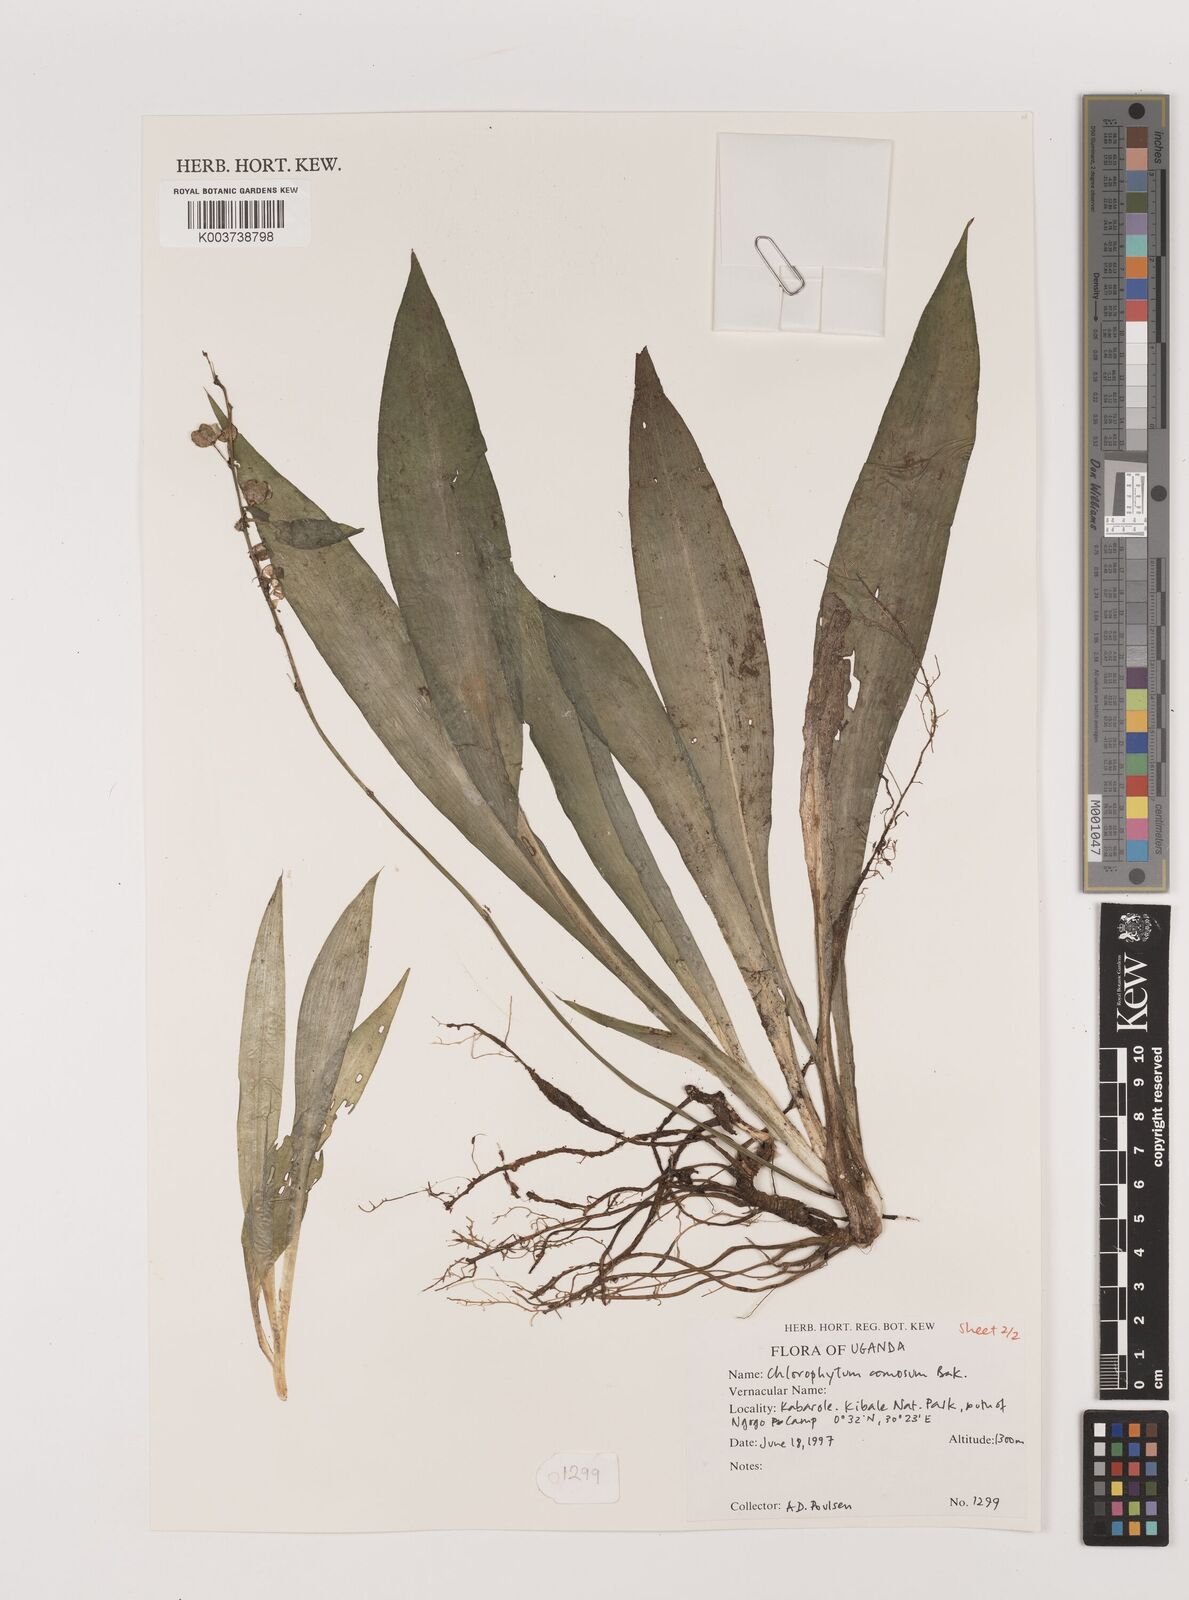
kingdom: Plantae
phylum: Tracheophyta
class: Liliopsida
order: Asparagales
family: Asparagaceae
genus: Chlorophytum
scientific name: Chlorophytum comosum
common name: Spider plant
